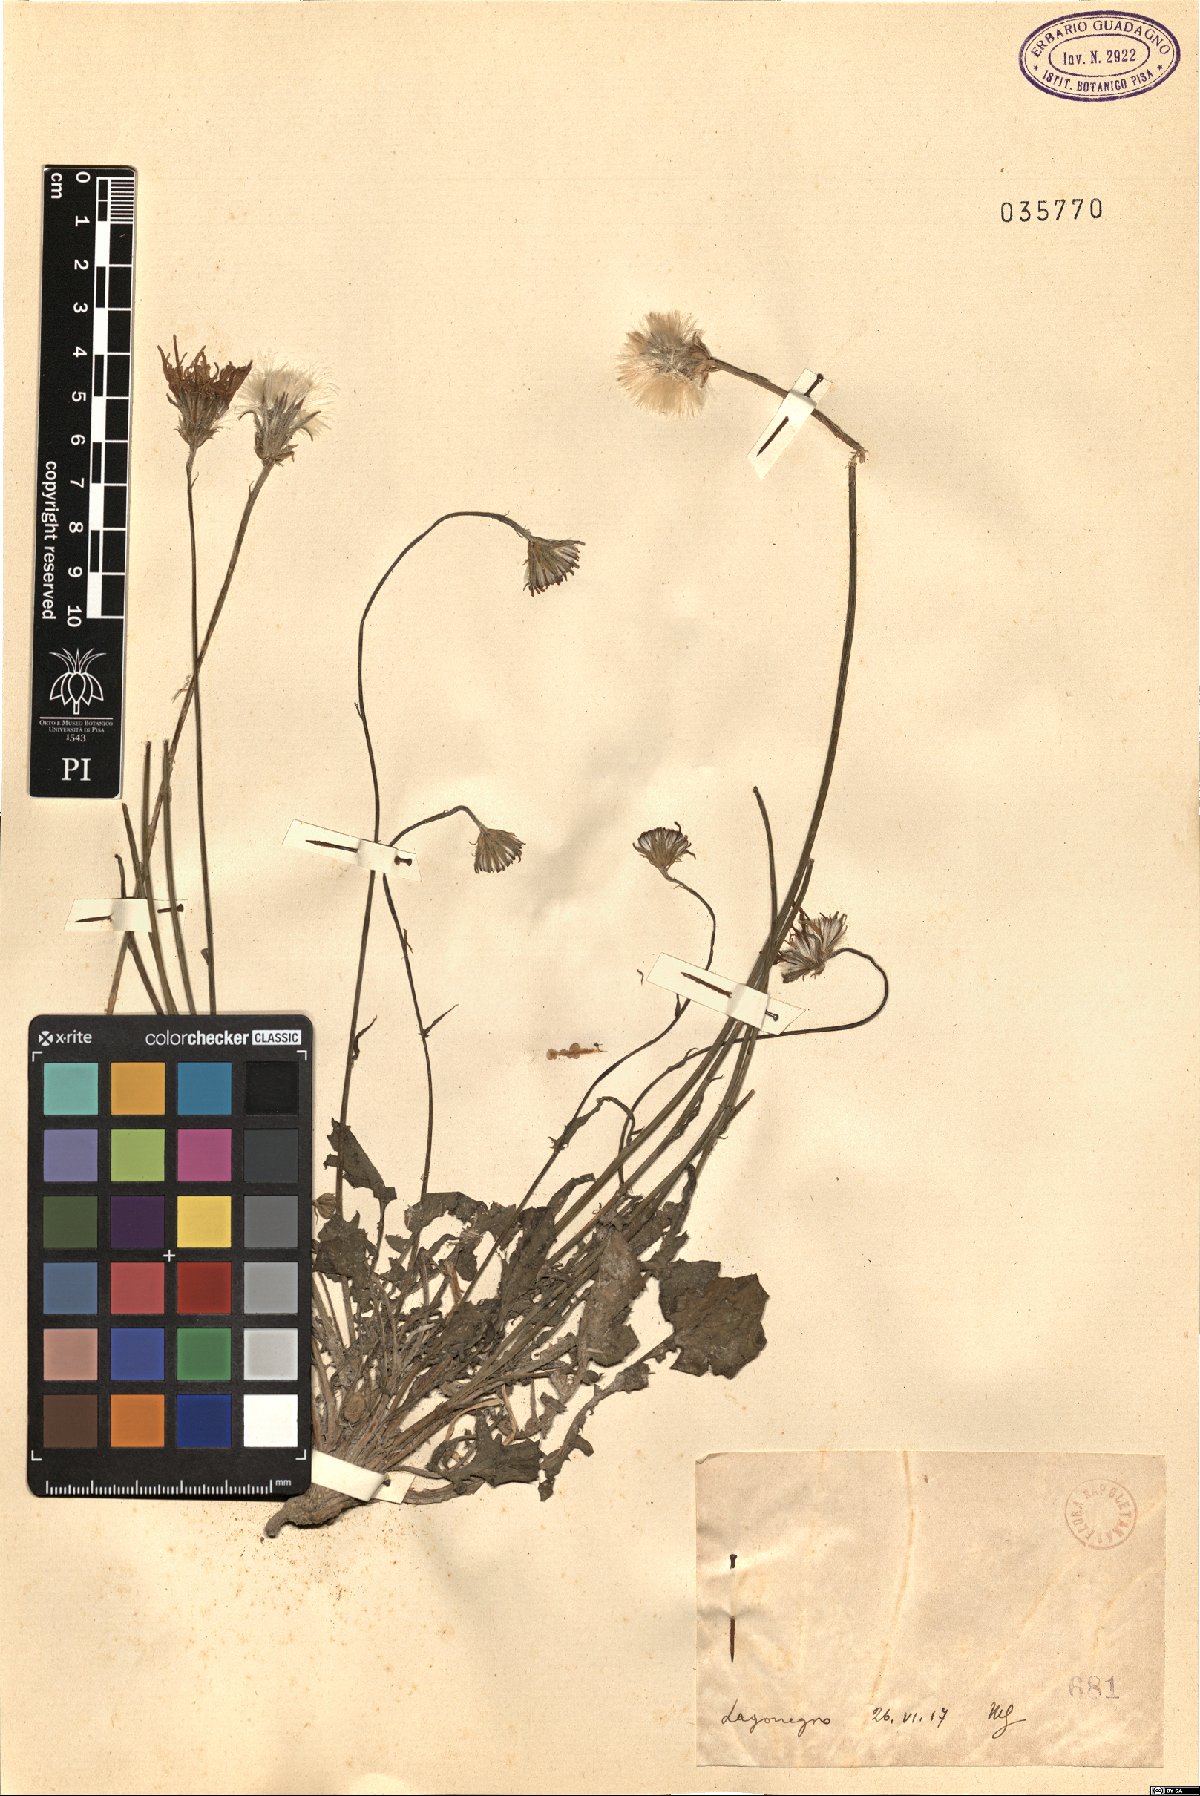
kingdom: Plantae
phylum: Tracheophyta
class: Magnoliopsida
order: Asterales
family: Asteraceae
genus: Crepis
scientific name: Crepis
